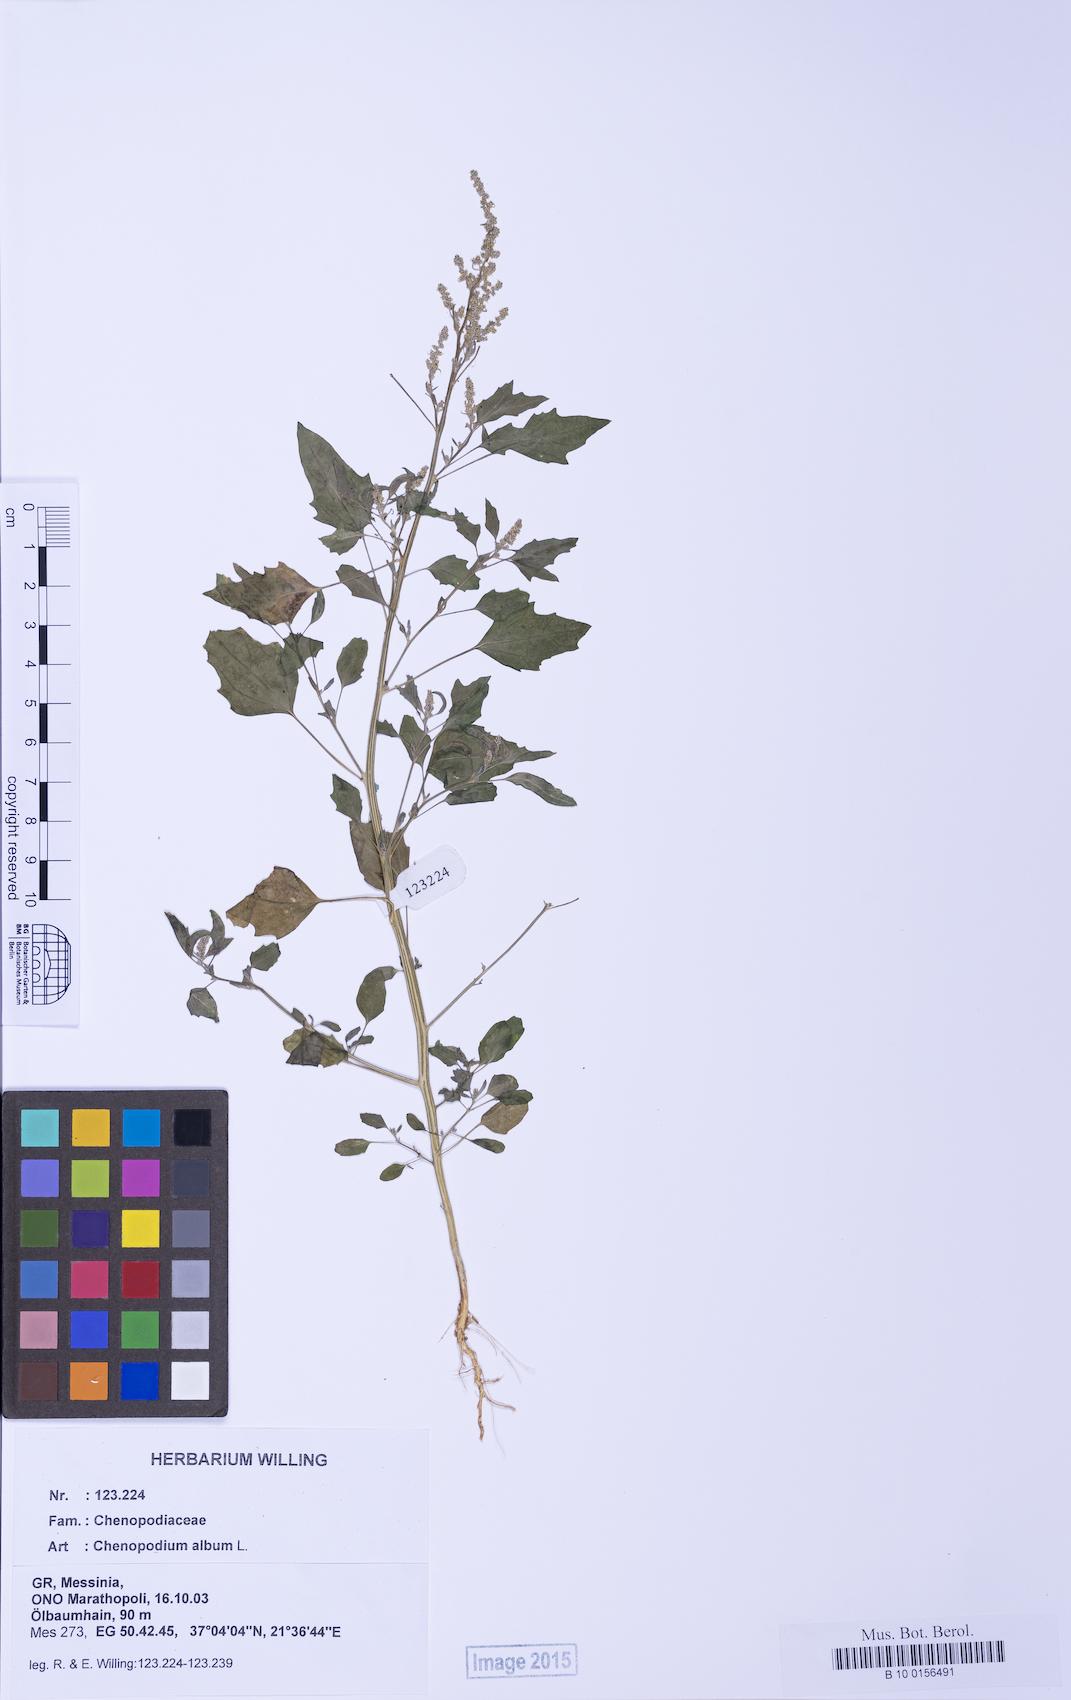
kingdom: Plantae
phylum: Tracheophyta
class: Magnoliopsida
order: Caryophyllales
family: Amaranthaceae
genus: Chenopodium
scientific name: Chenopodium album
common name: Fat-hen
